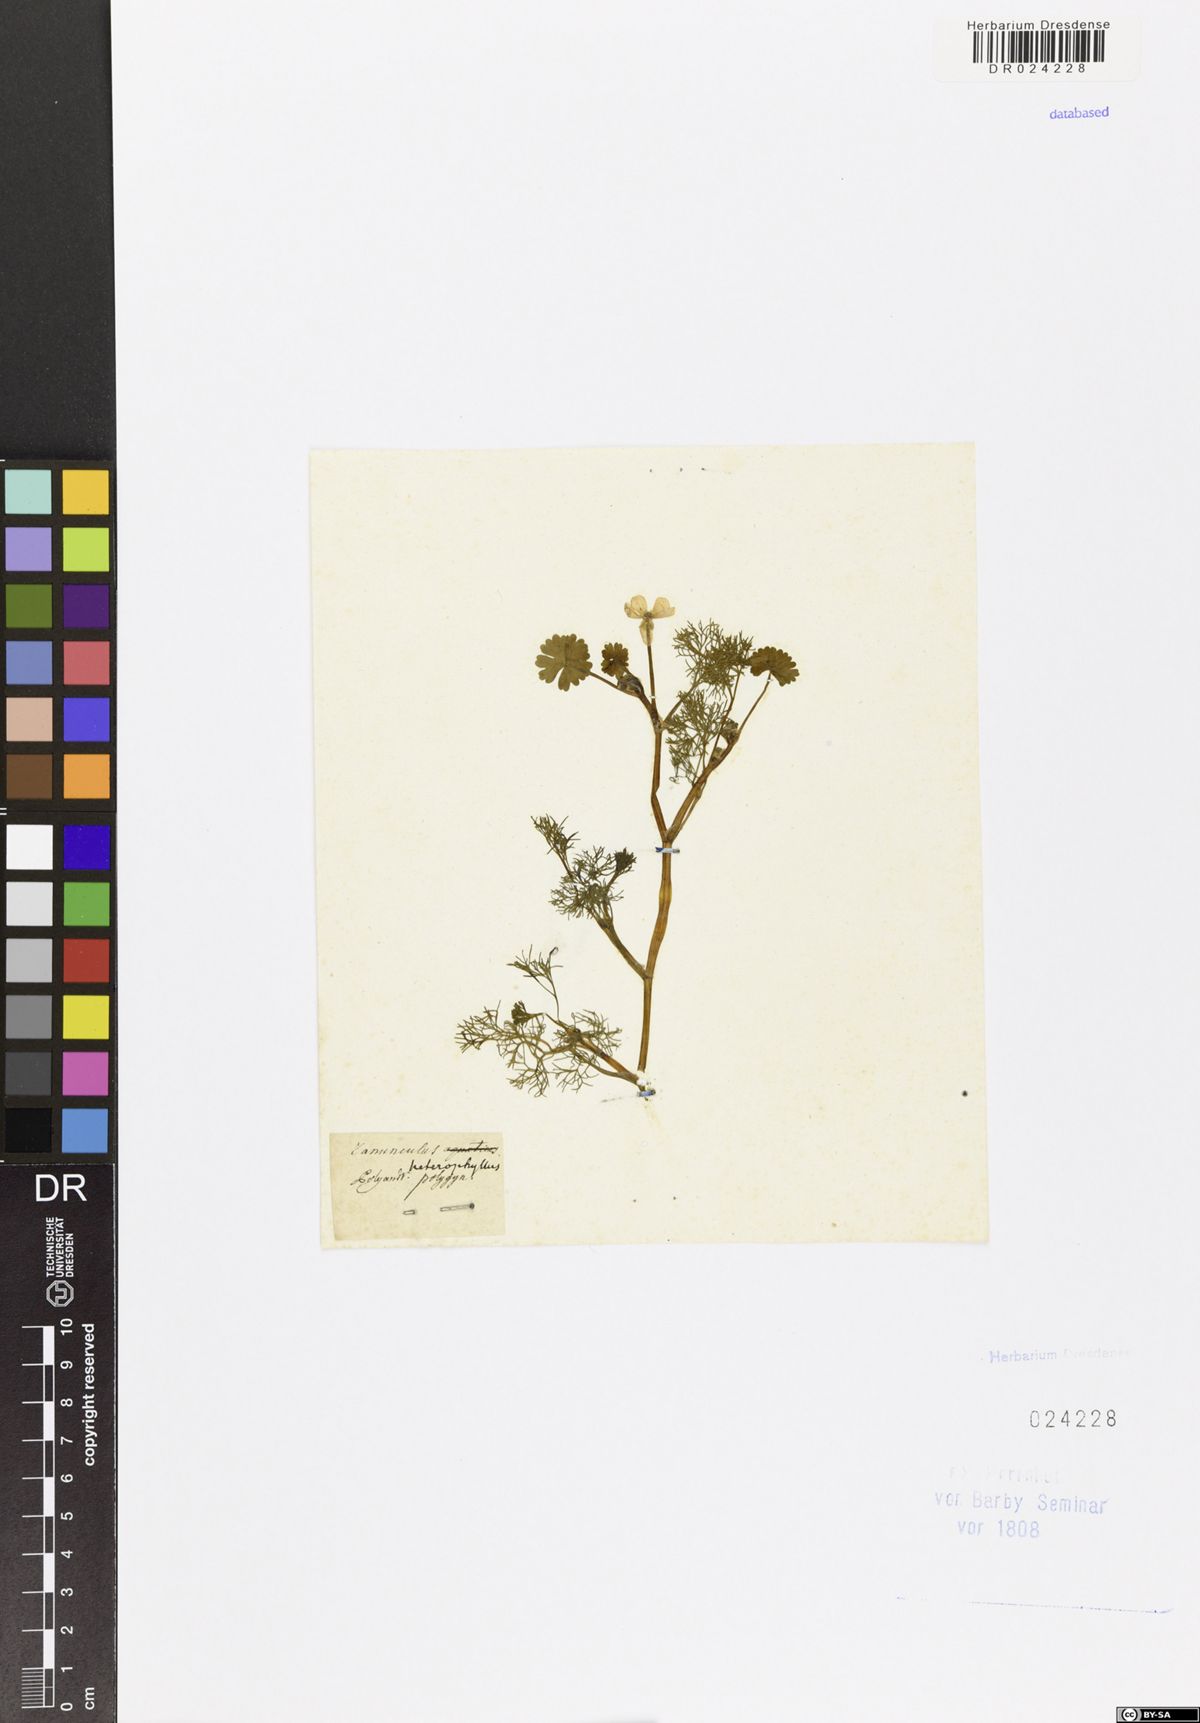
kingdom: Plantae
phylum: Tracheophyta
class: Magnoliopsida
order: Ranunculales
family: Ranunculaceae
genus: Ranunculus
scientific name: Ranunculus aquatilis
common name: Common water-crowfoot
